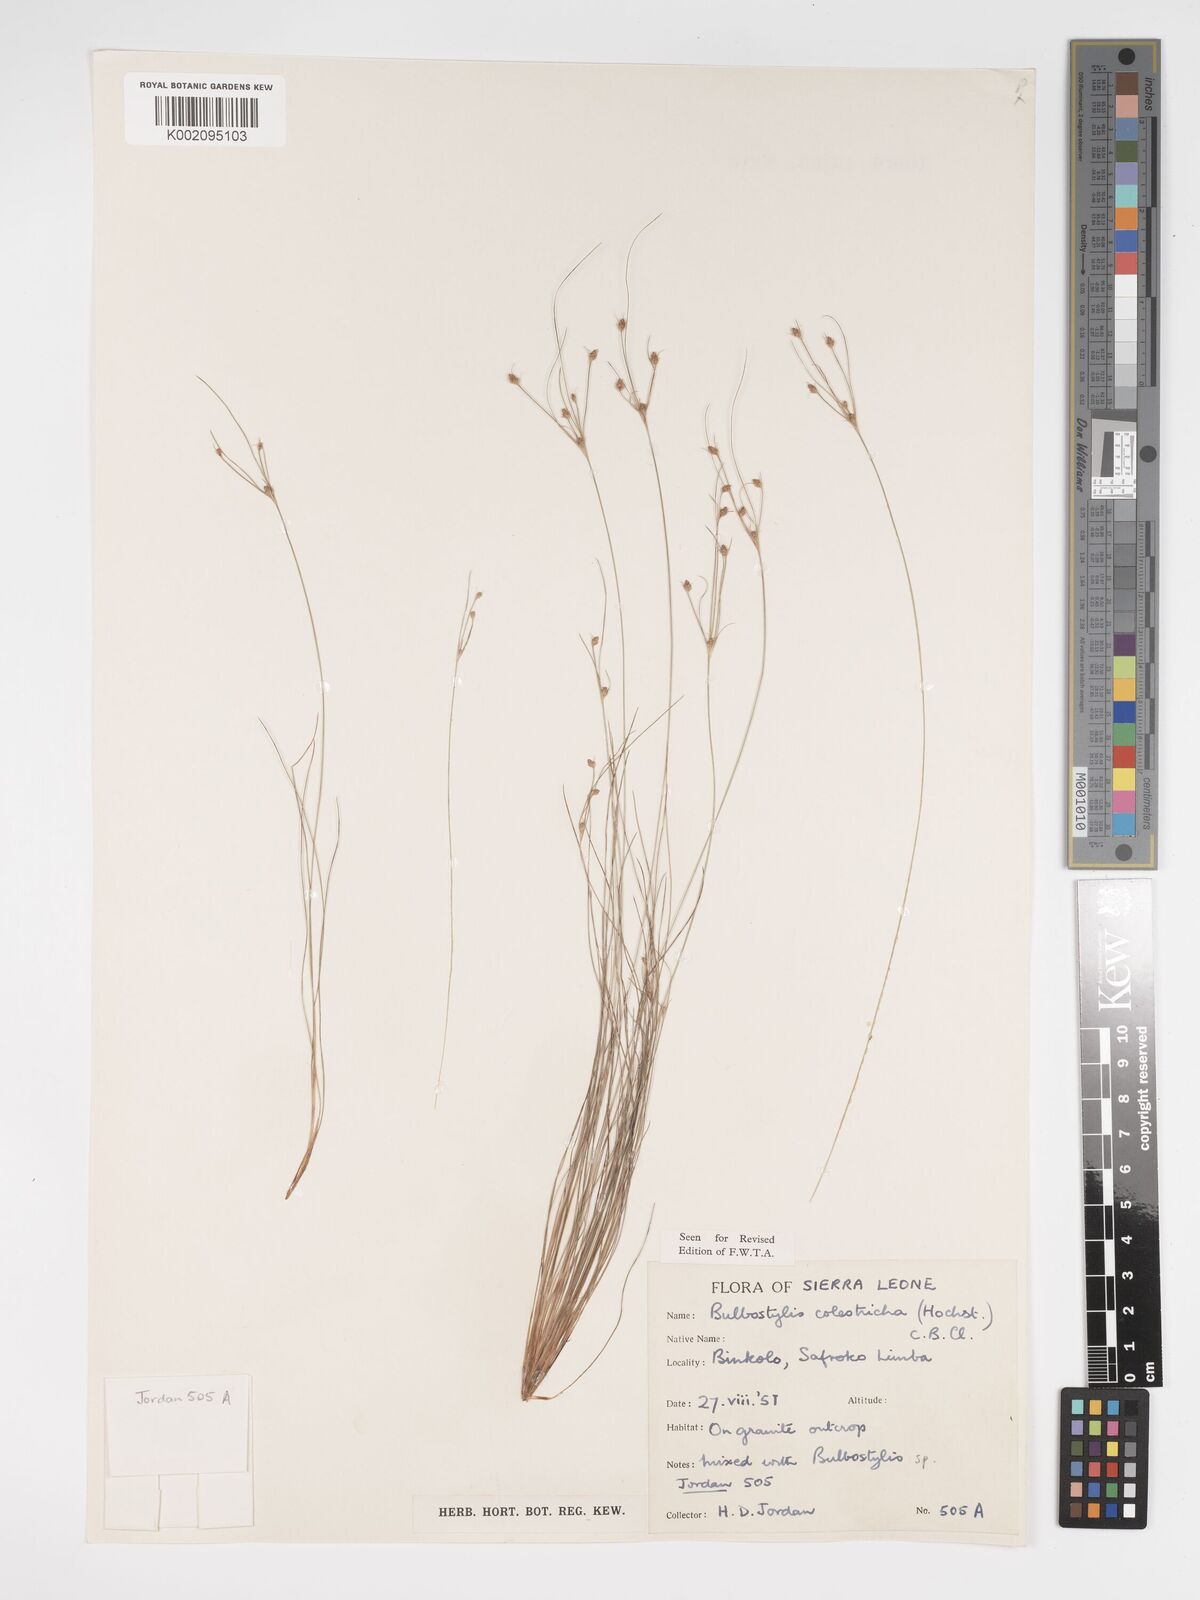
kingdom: Plantae
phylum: Tracheophyta
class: Liliopsida
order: Poales
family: Cyperaceae
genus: Bulbostylis
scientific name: Bulbostylis coleotricha
